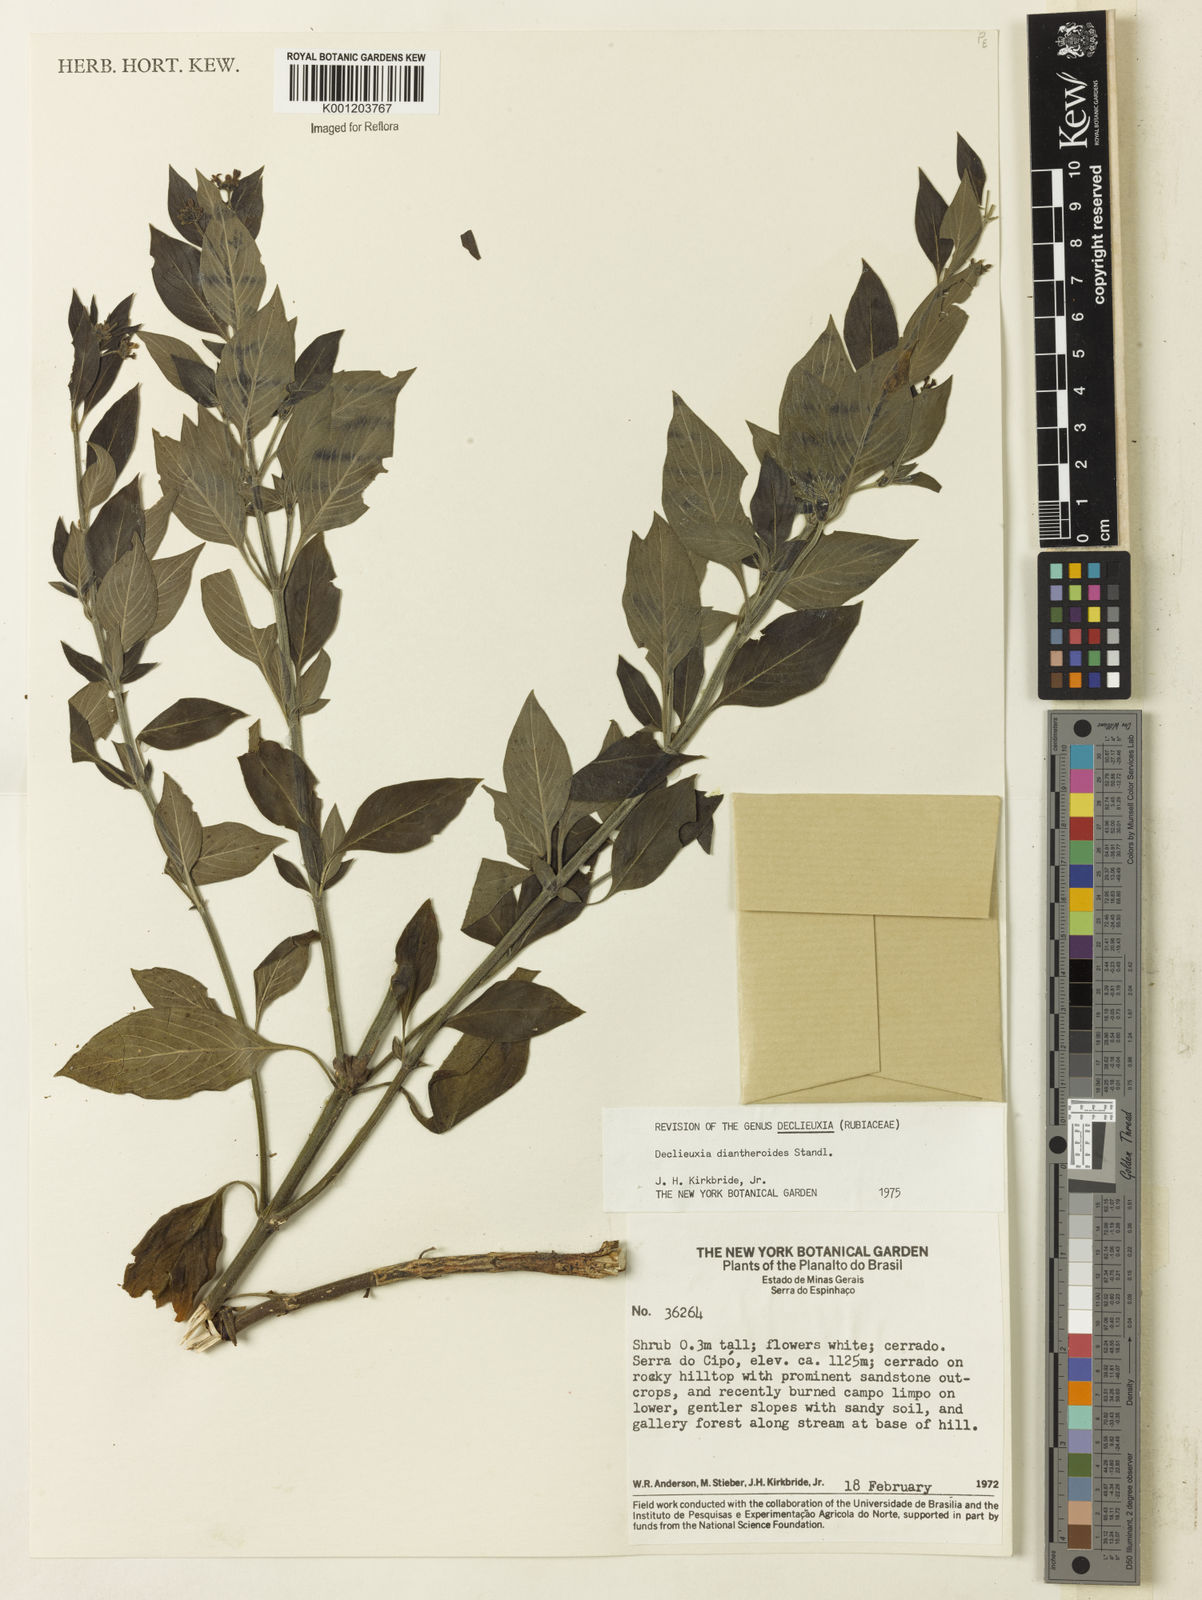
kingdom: Plantae
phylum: Tracheophyta
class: Magnoliopsida
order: Gentianales
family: Rubiaceae
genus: Declieuxia
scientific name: Declieuxia diantheroides
